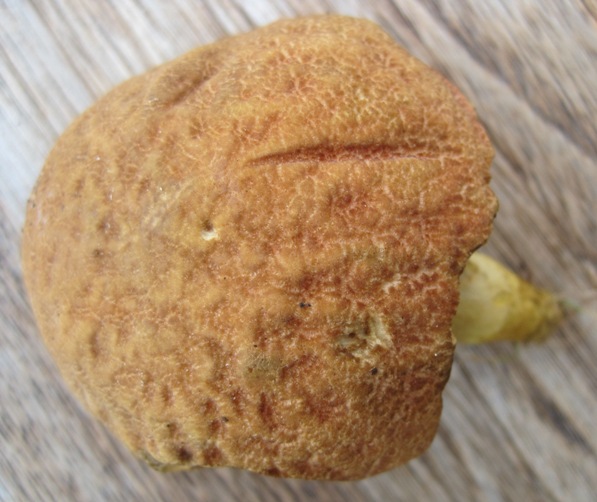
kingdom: Fungi
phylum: Basidiomycota
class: Agaricomycetes
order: Boletales
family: Boletaceae
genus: Xerocomellus
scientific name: Xerocomellus chrysenteron
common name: rødsprukken rørhat
